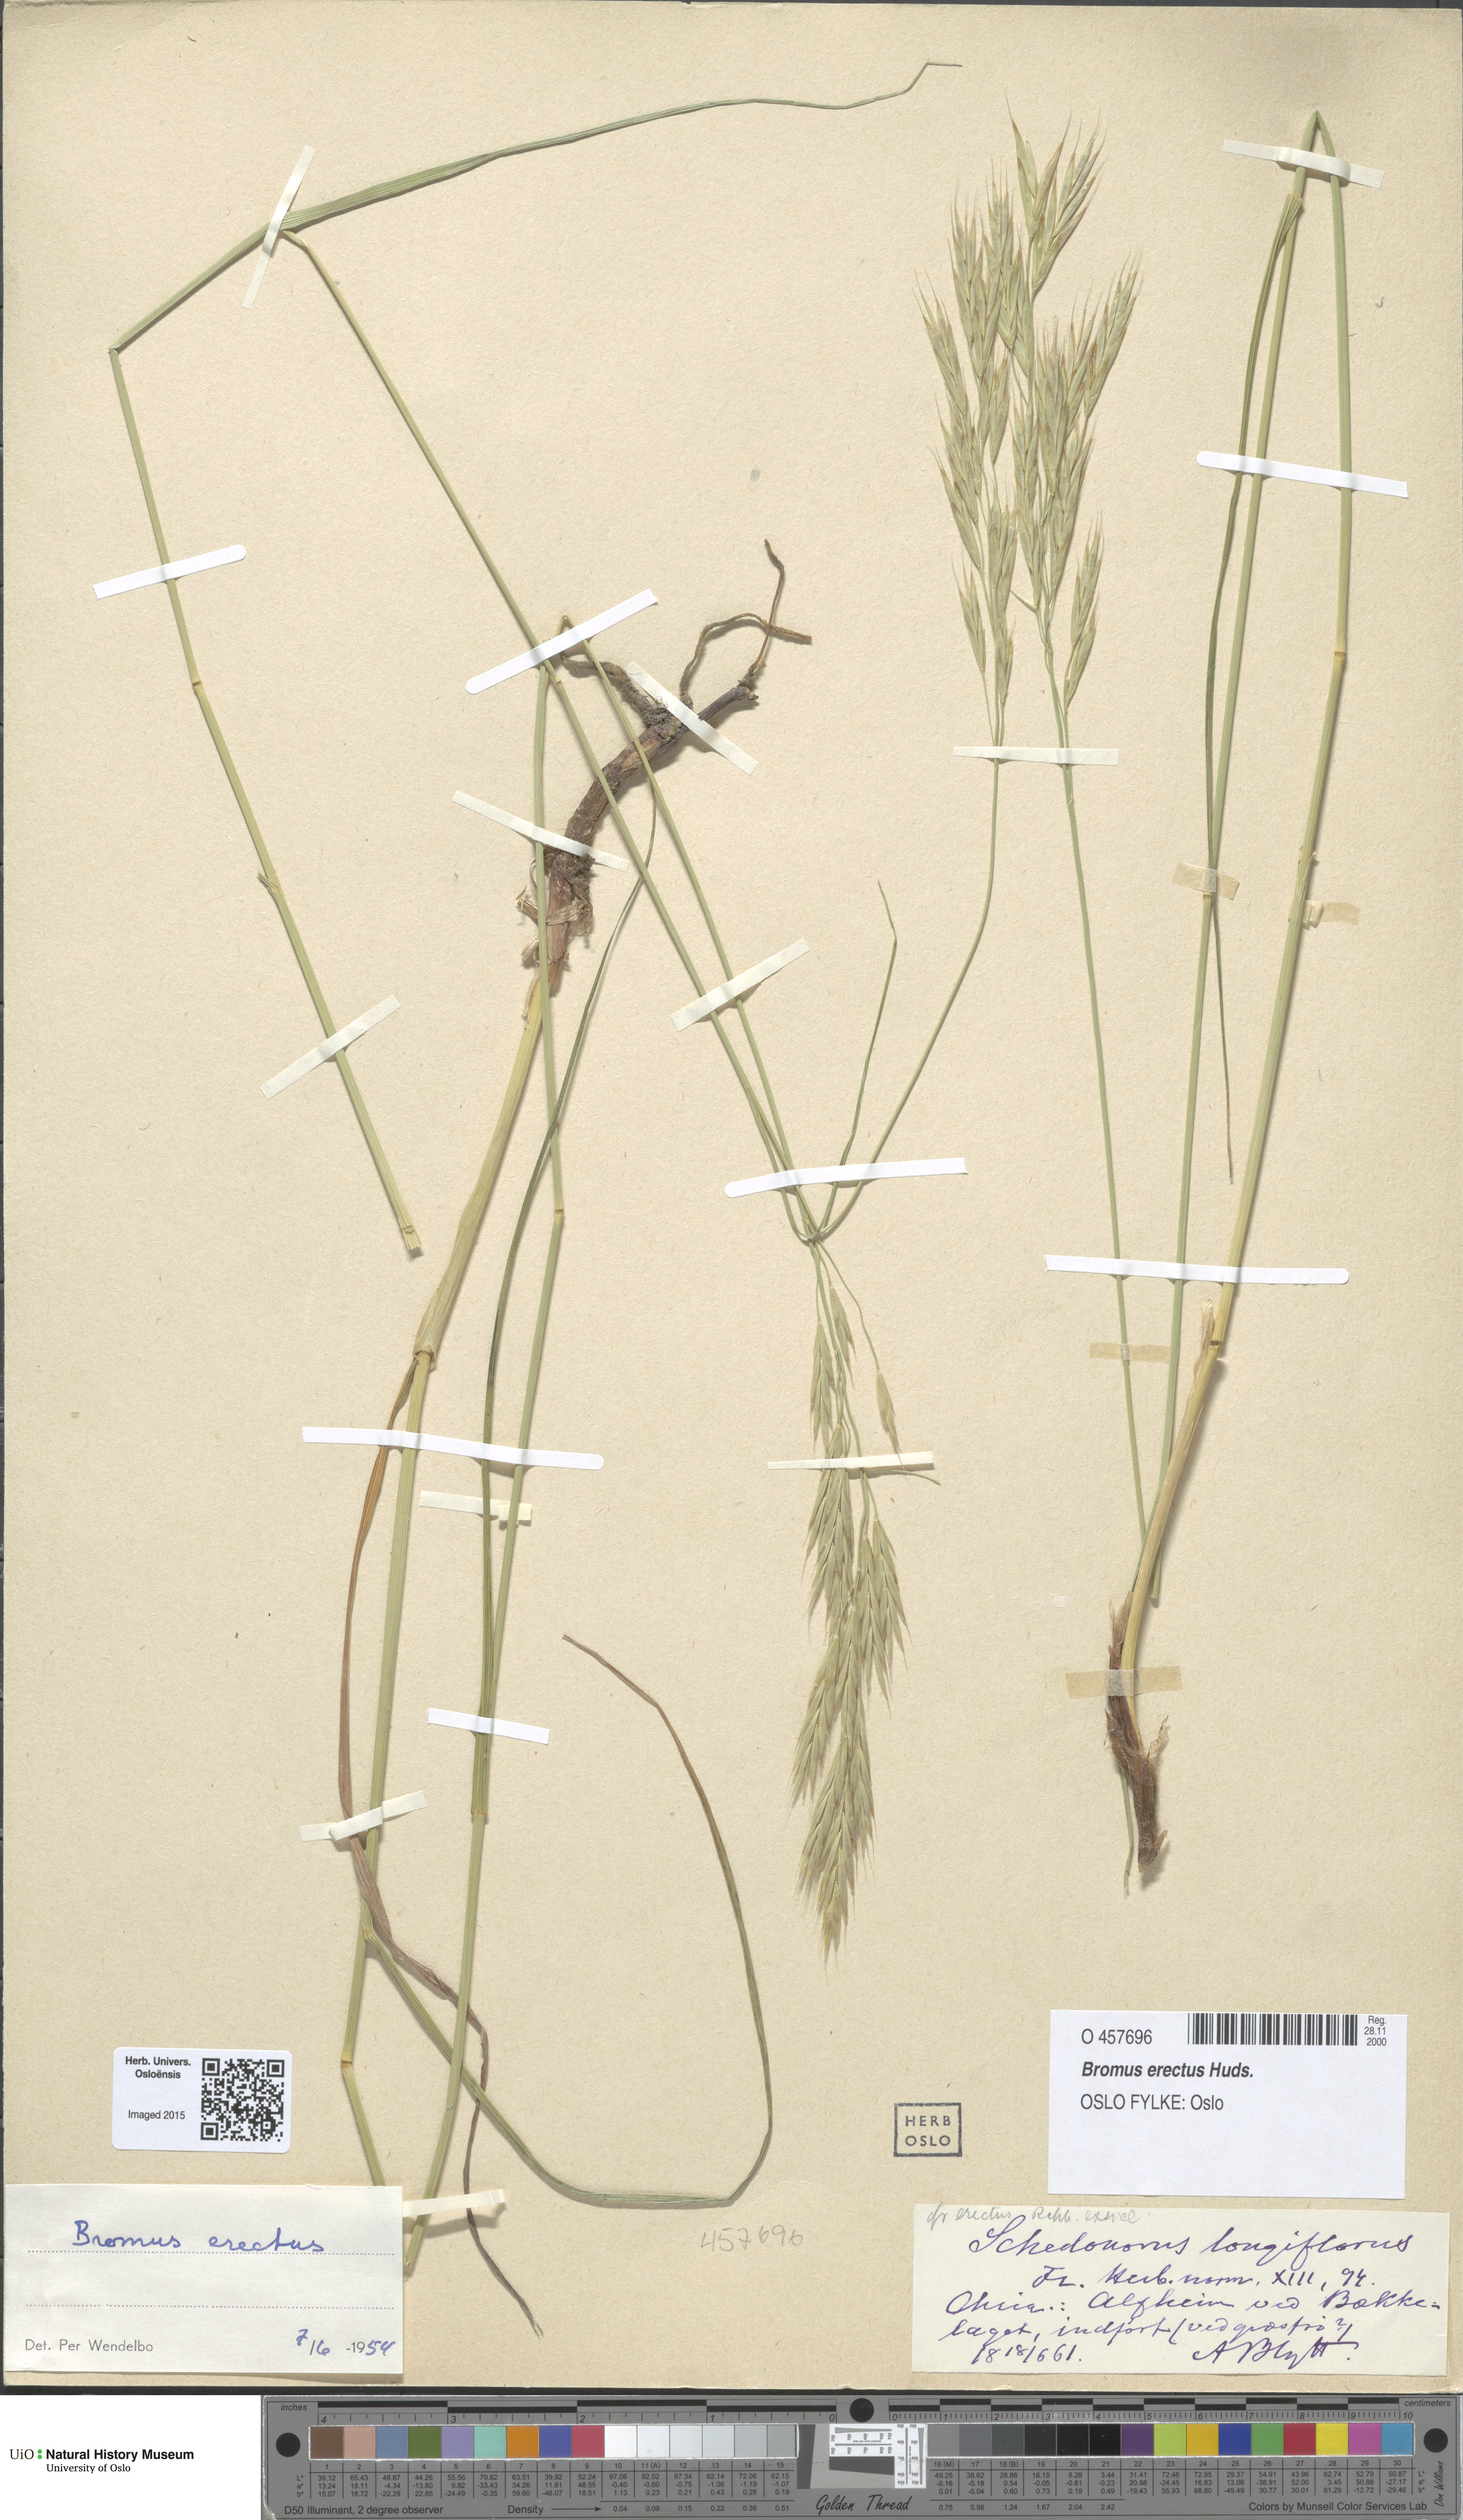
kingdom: Plantae
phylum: Tracheophyta
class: Liliopsida
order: Poales
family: Poaceae
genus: Bromus
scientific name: Bromus erectus
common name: Erect brome
